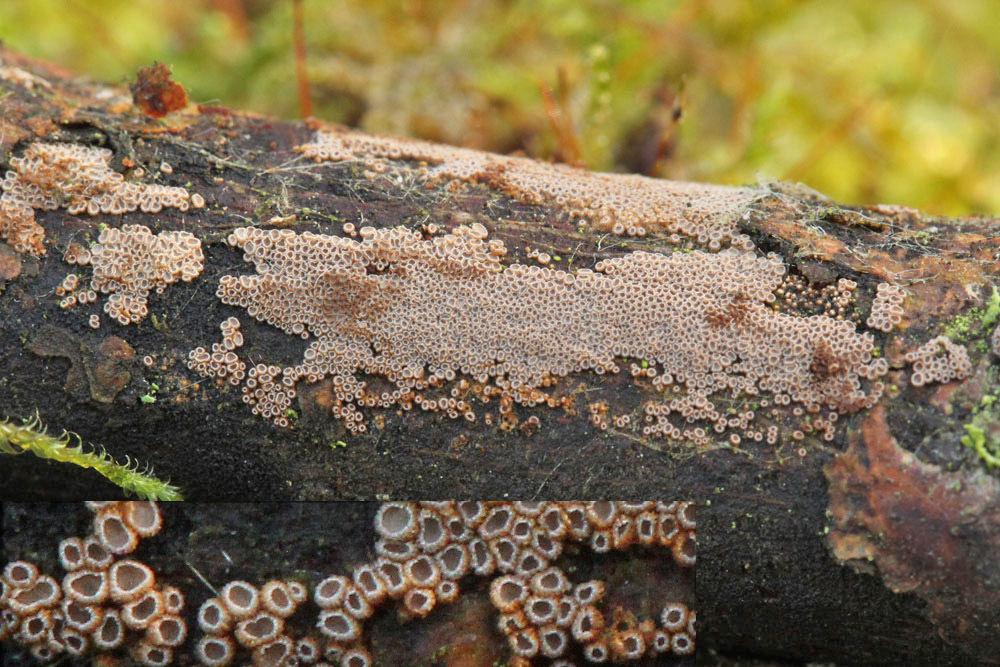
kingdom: Fungi
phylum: Basidiomycota
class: Agaricomycetes
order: Agaricales
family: Niaceae
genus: Merismodes
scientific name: Merismodes anomala
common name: almindelig læderskål
